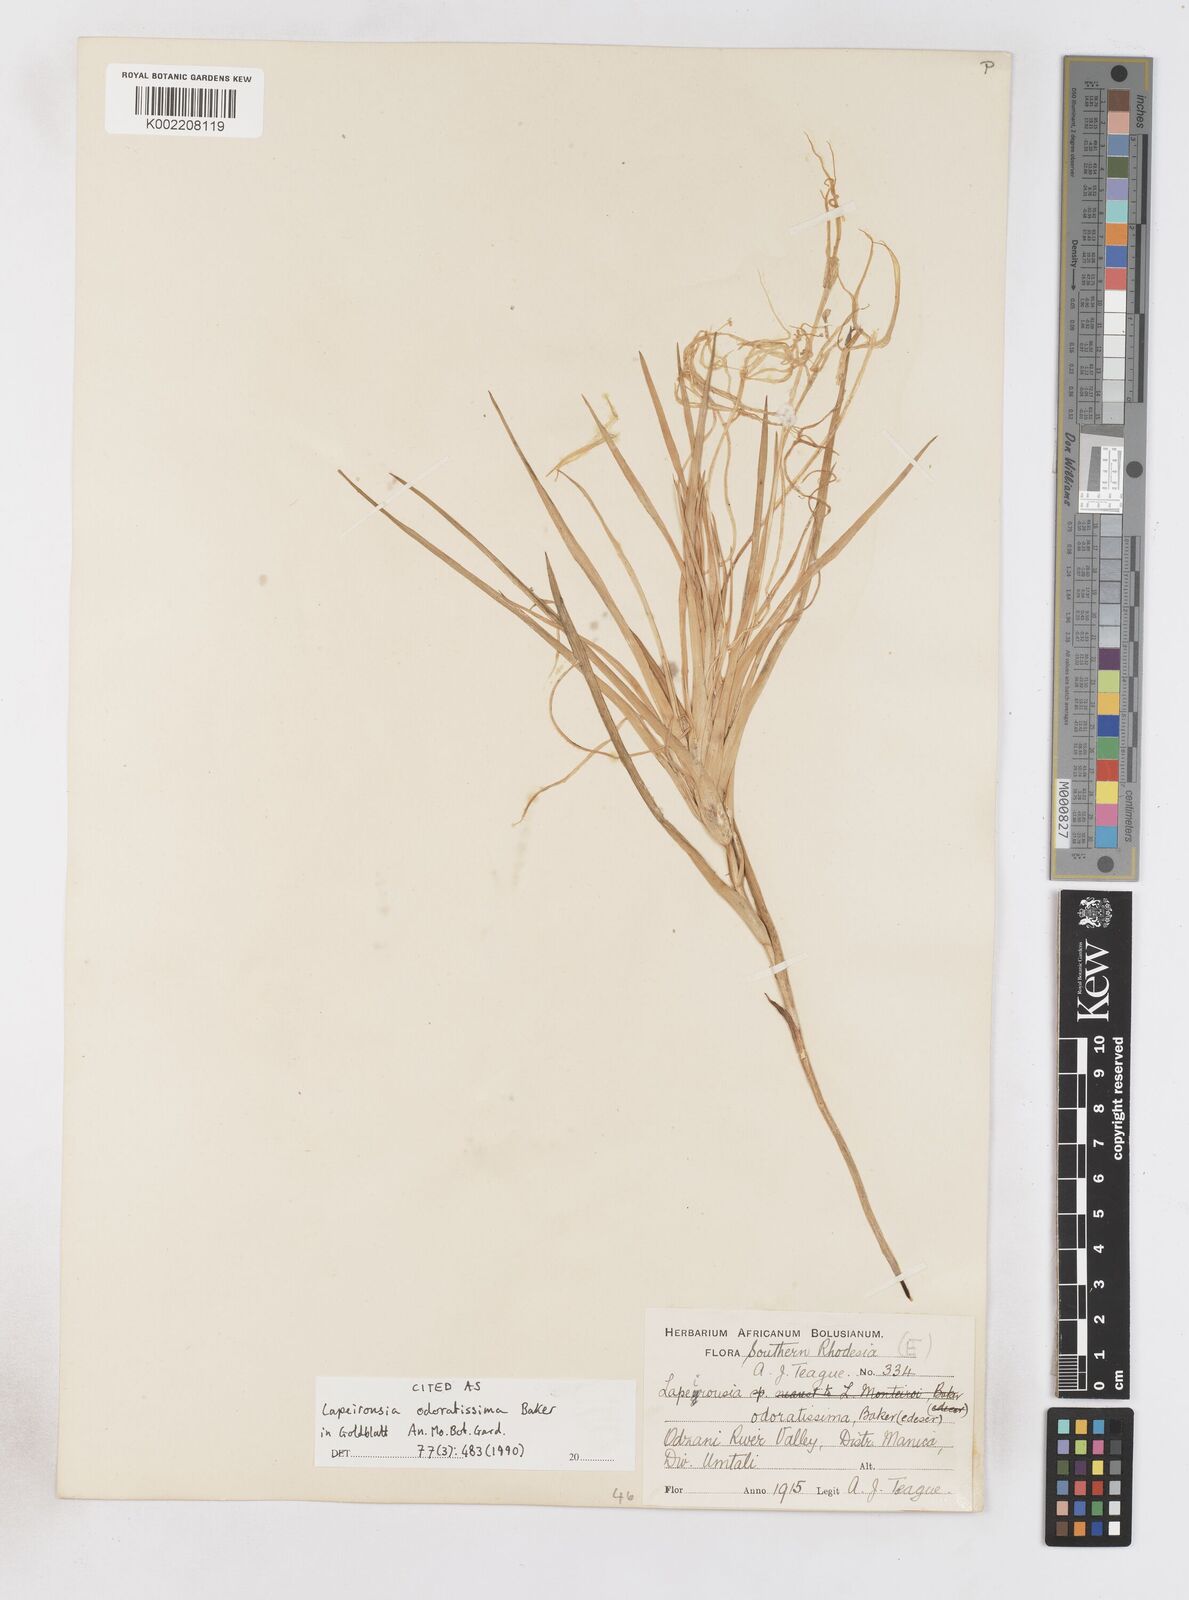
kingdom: Plantae
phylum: Tracheophyta
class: Liliopsida
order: Asparagales
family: Iridaceae
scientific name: Iridaceae
